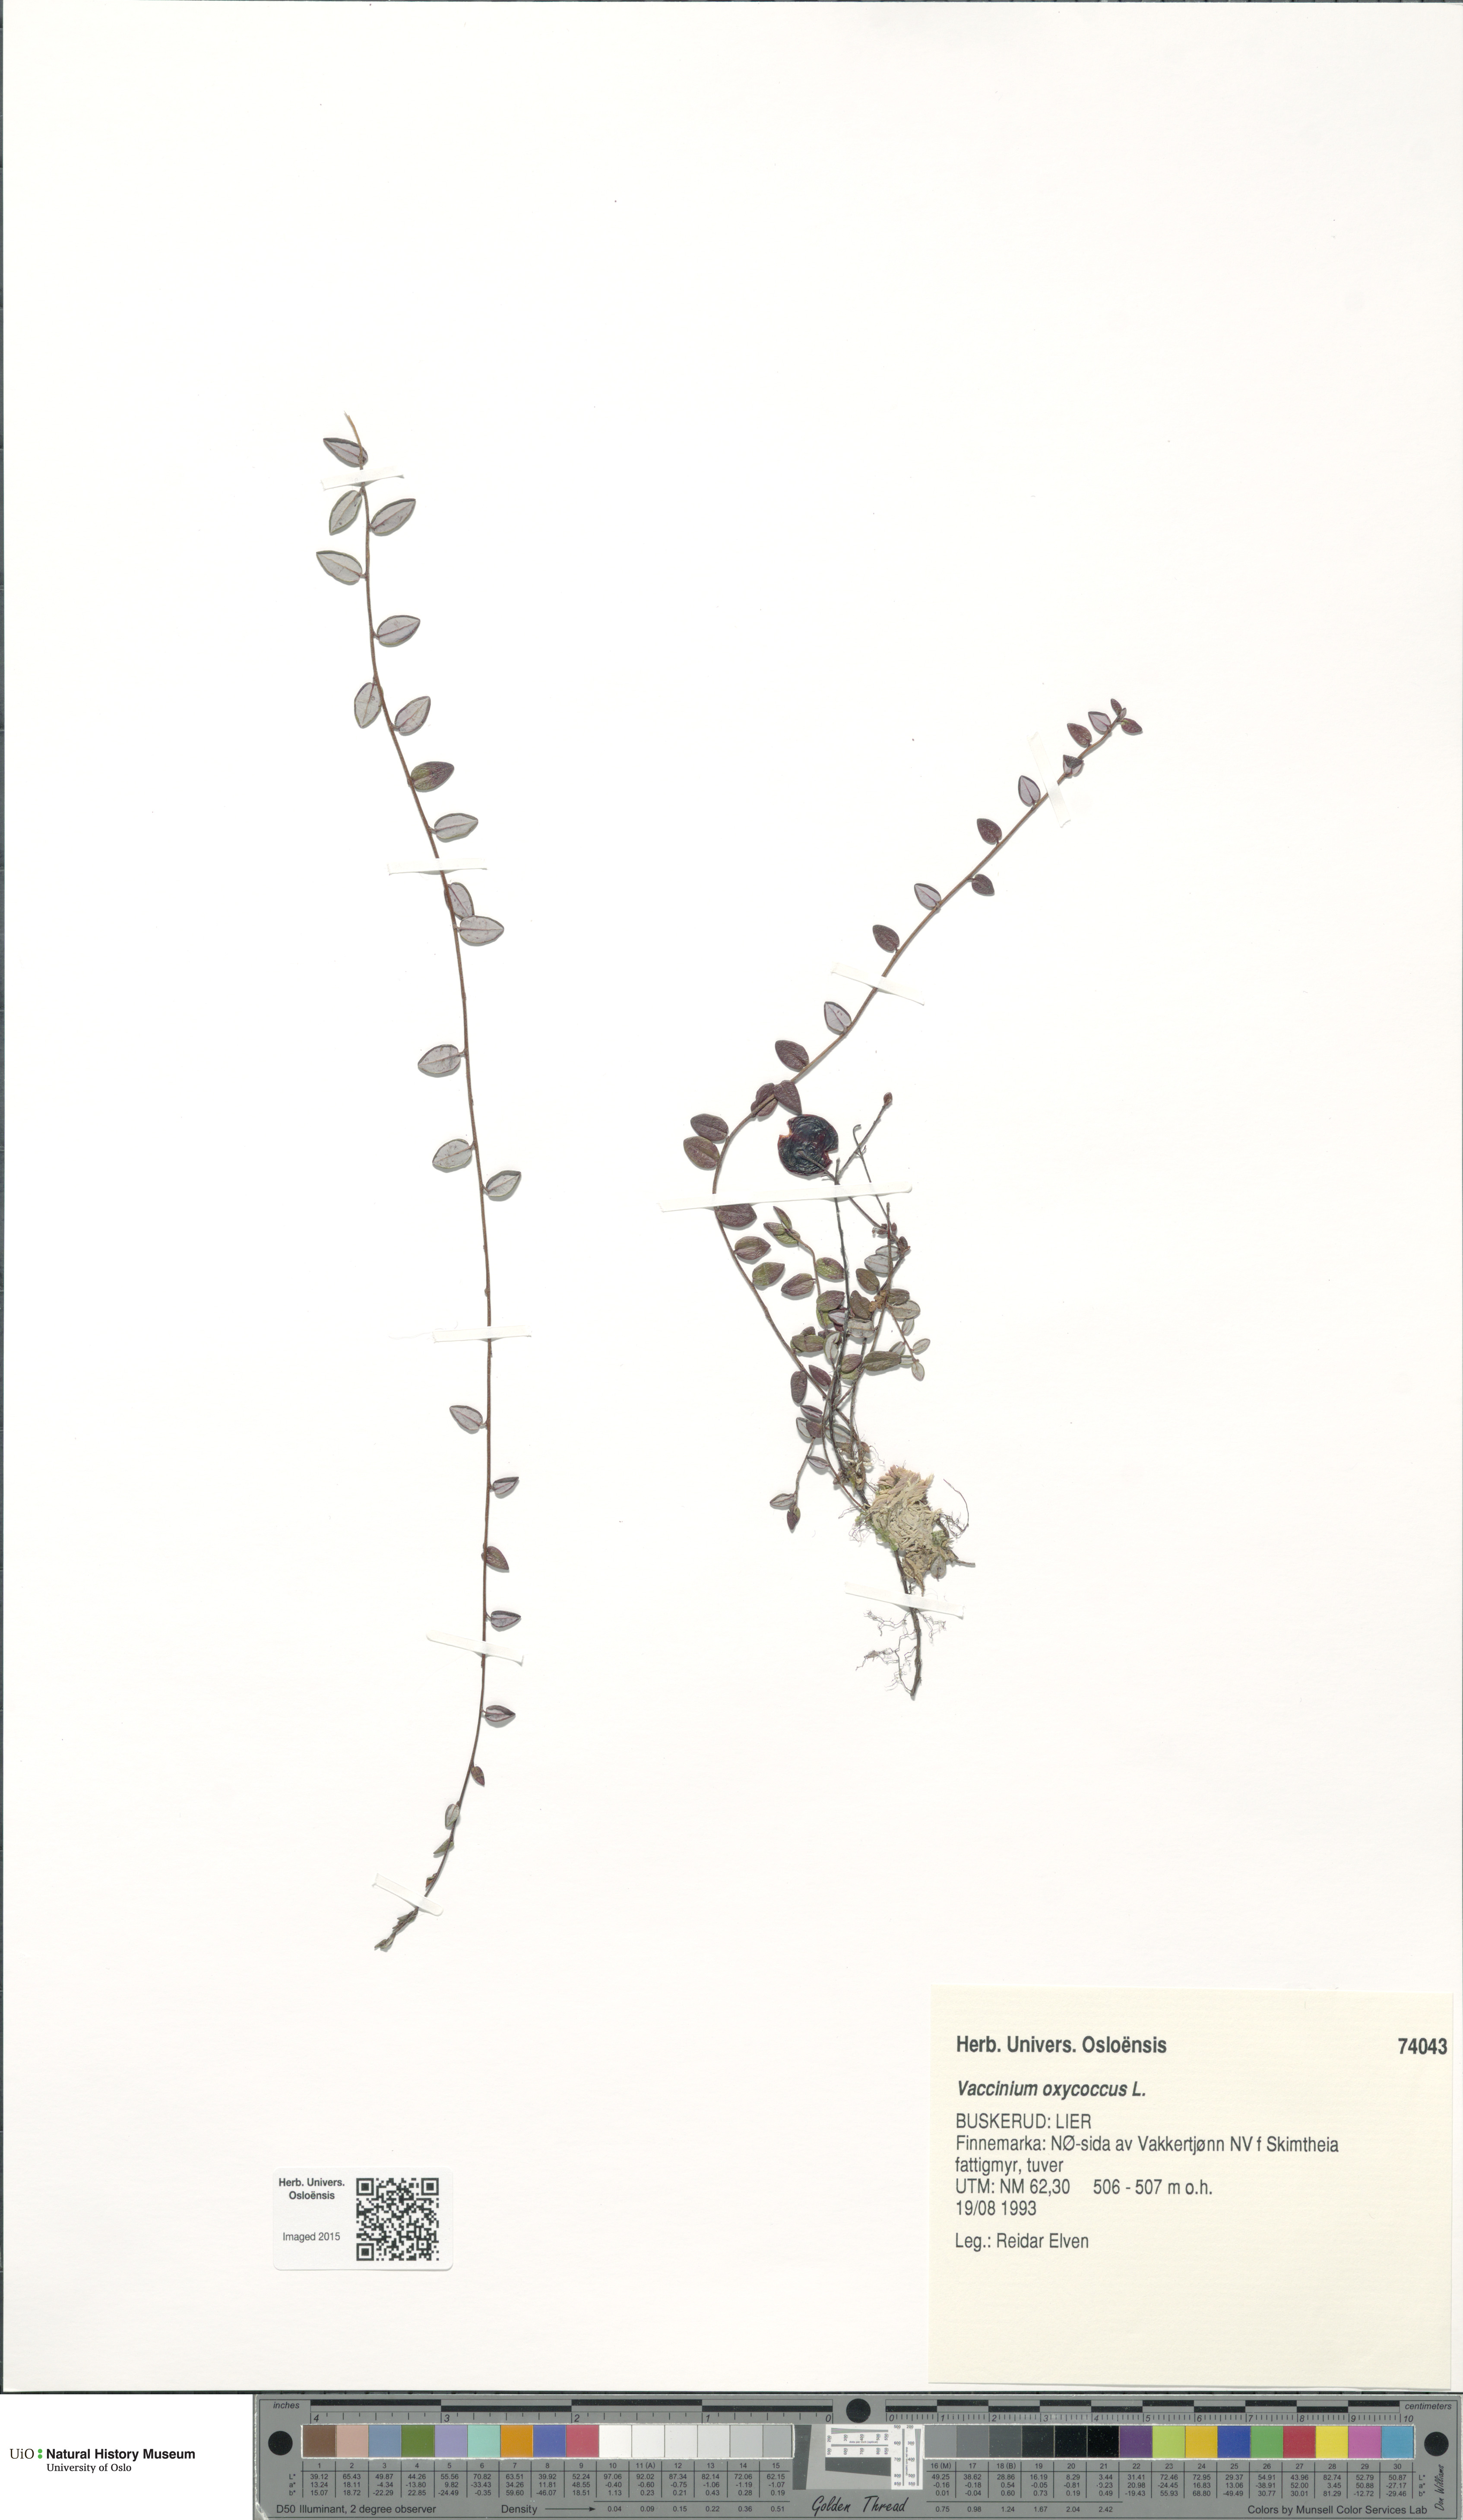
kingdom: Plantae
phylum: Tracheophyta
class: Magnoliopsida
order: Ericales
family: Ericaceae
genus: Vaccinium
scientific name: Vaccinium oxycoccos
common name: Cranberry
